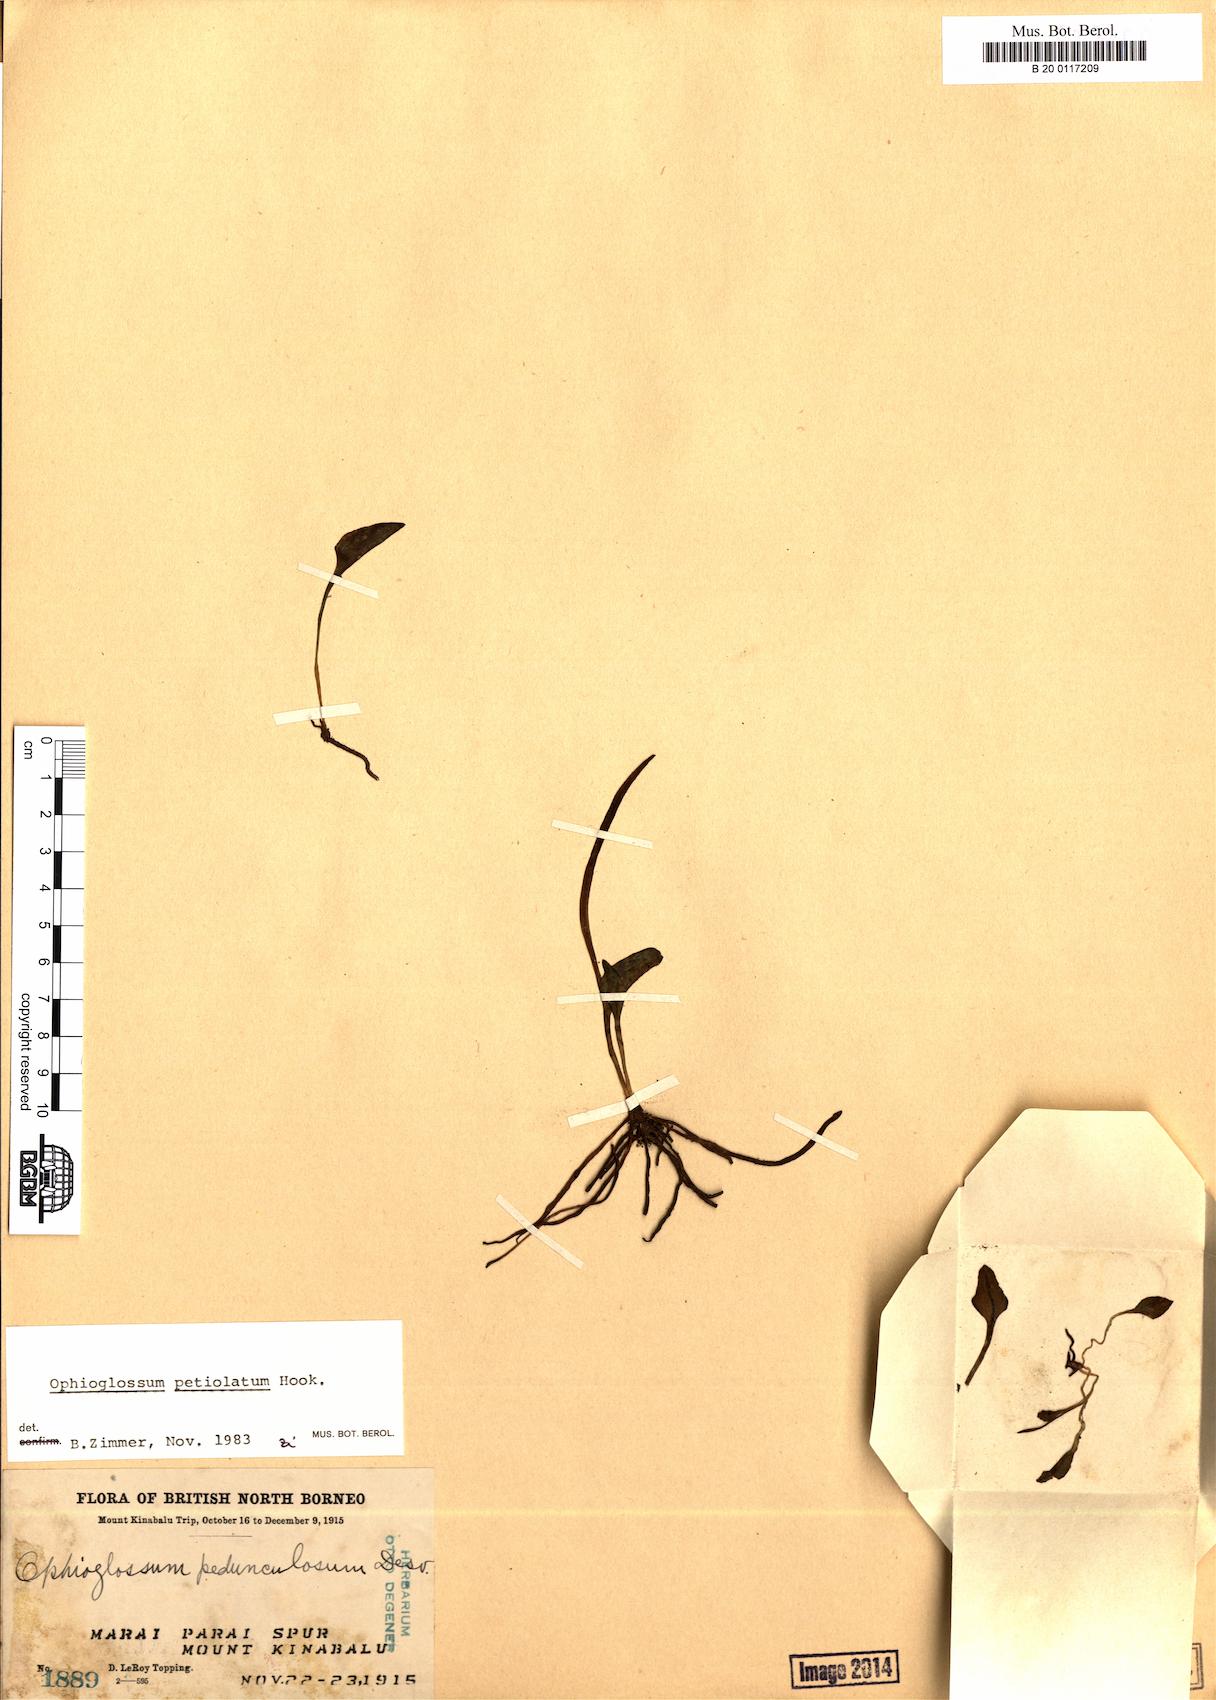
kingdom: Plantae
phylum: Tracheophyta
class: Polypodiopsida
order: Ophioglossales
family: Ophioglossaceae
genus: Ophioglossum
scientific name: Ophioglossum petiolatum
